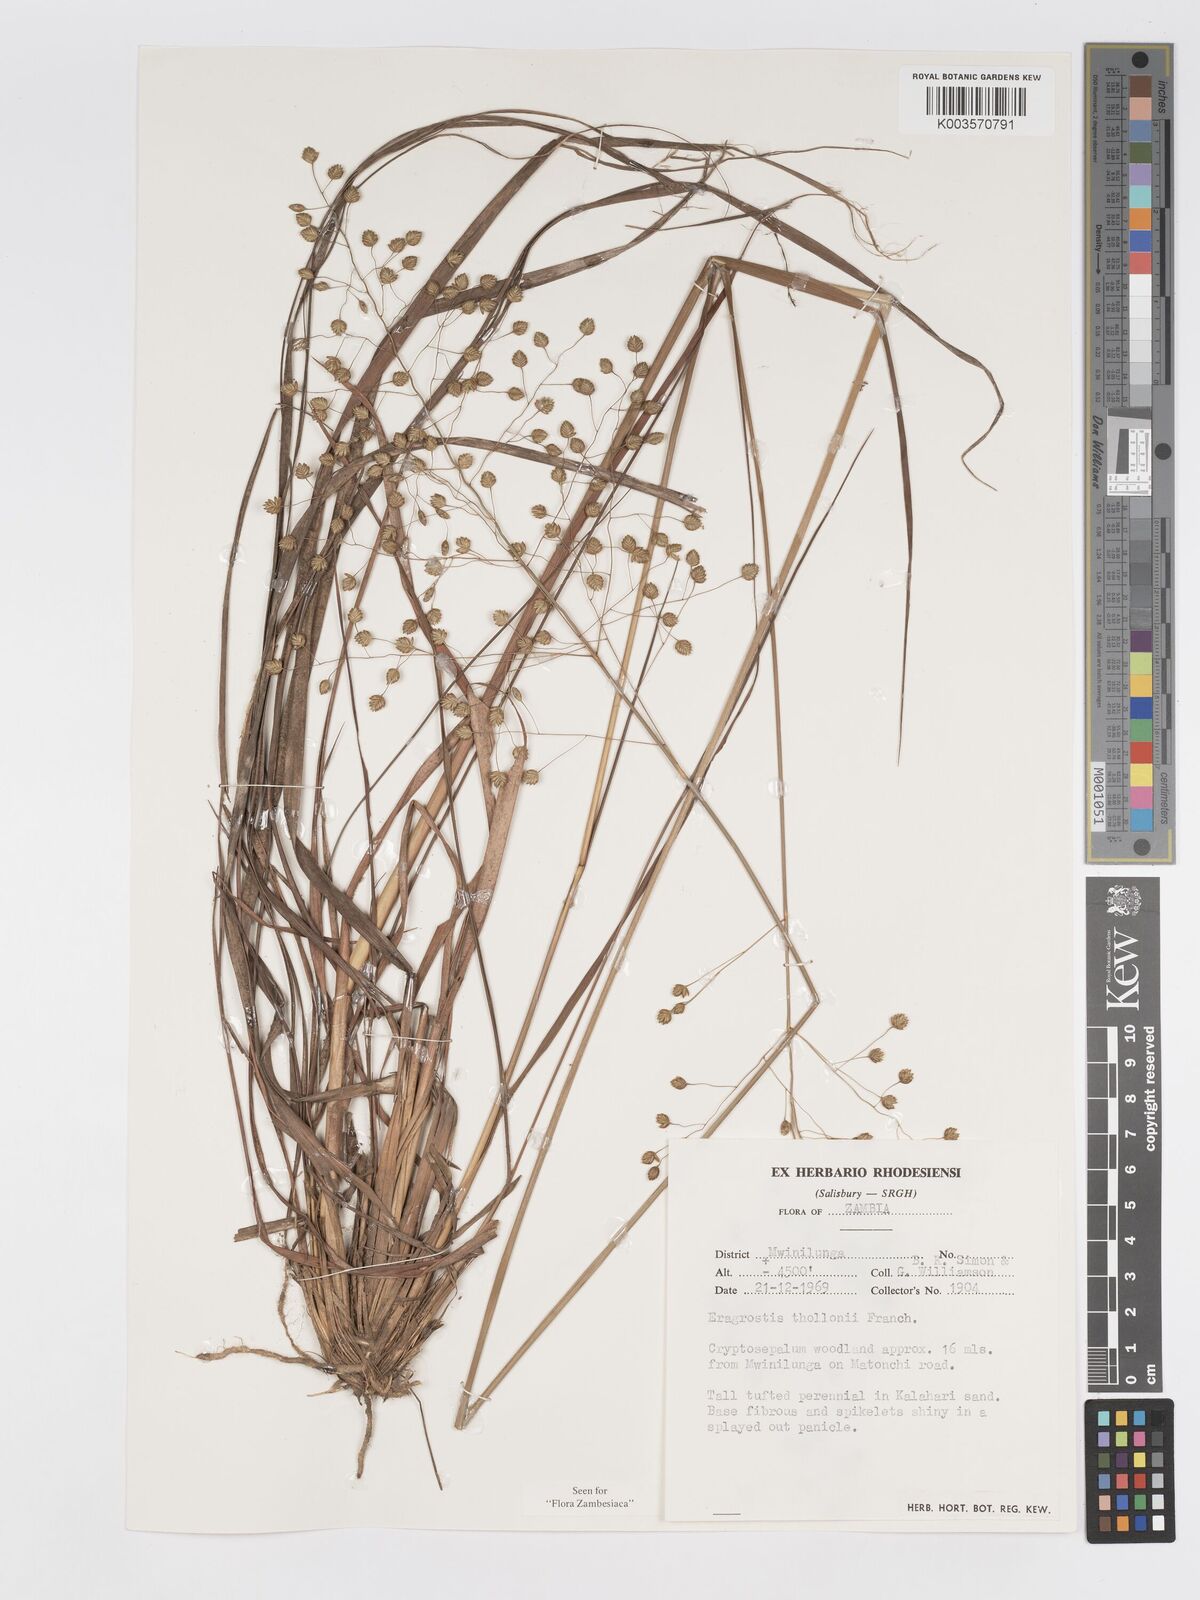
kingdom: Plantae
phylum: Tracheophyta
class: Liliopsida
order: Poales
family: Poaceae
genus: Eragrostis
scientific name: Eragrostis thollonii
